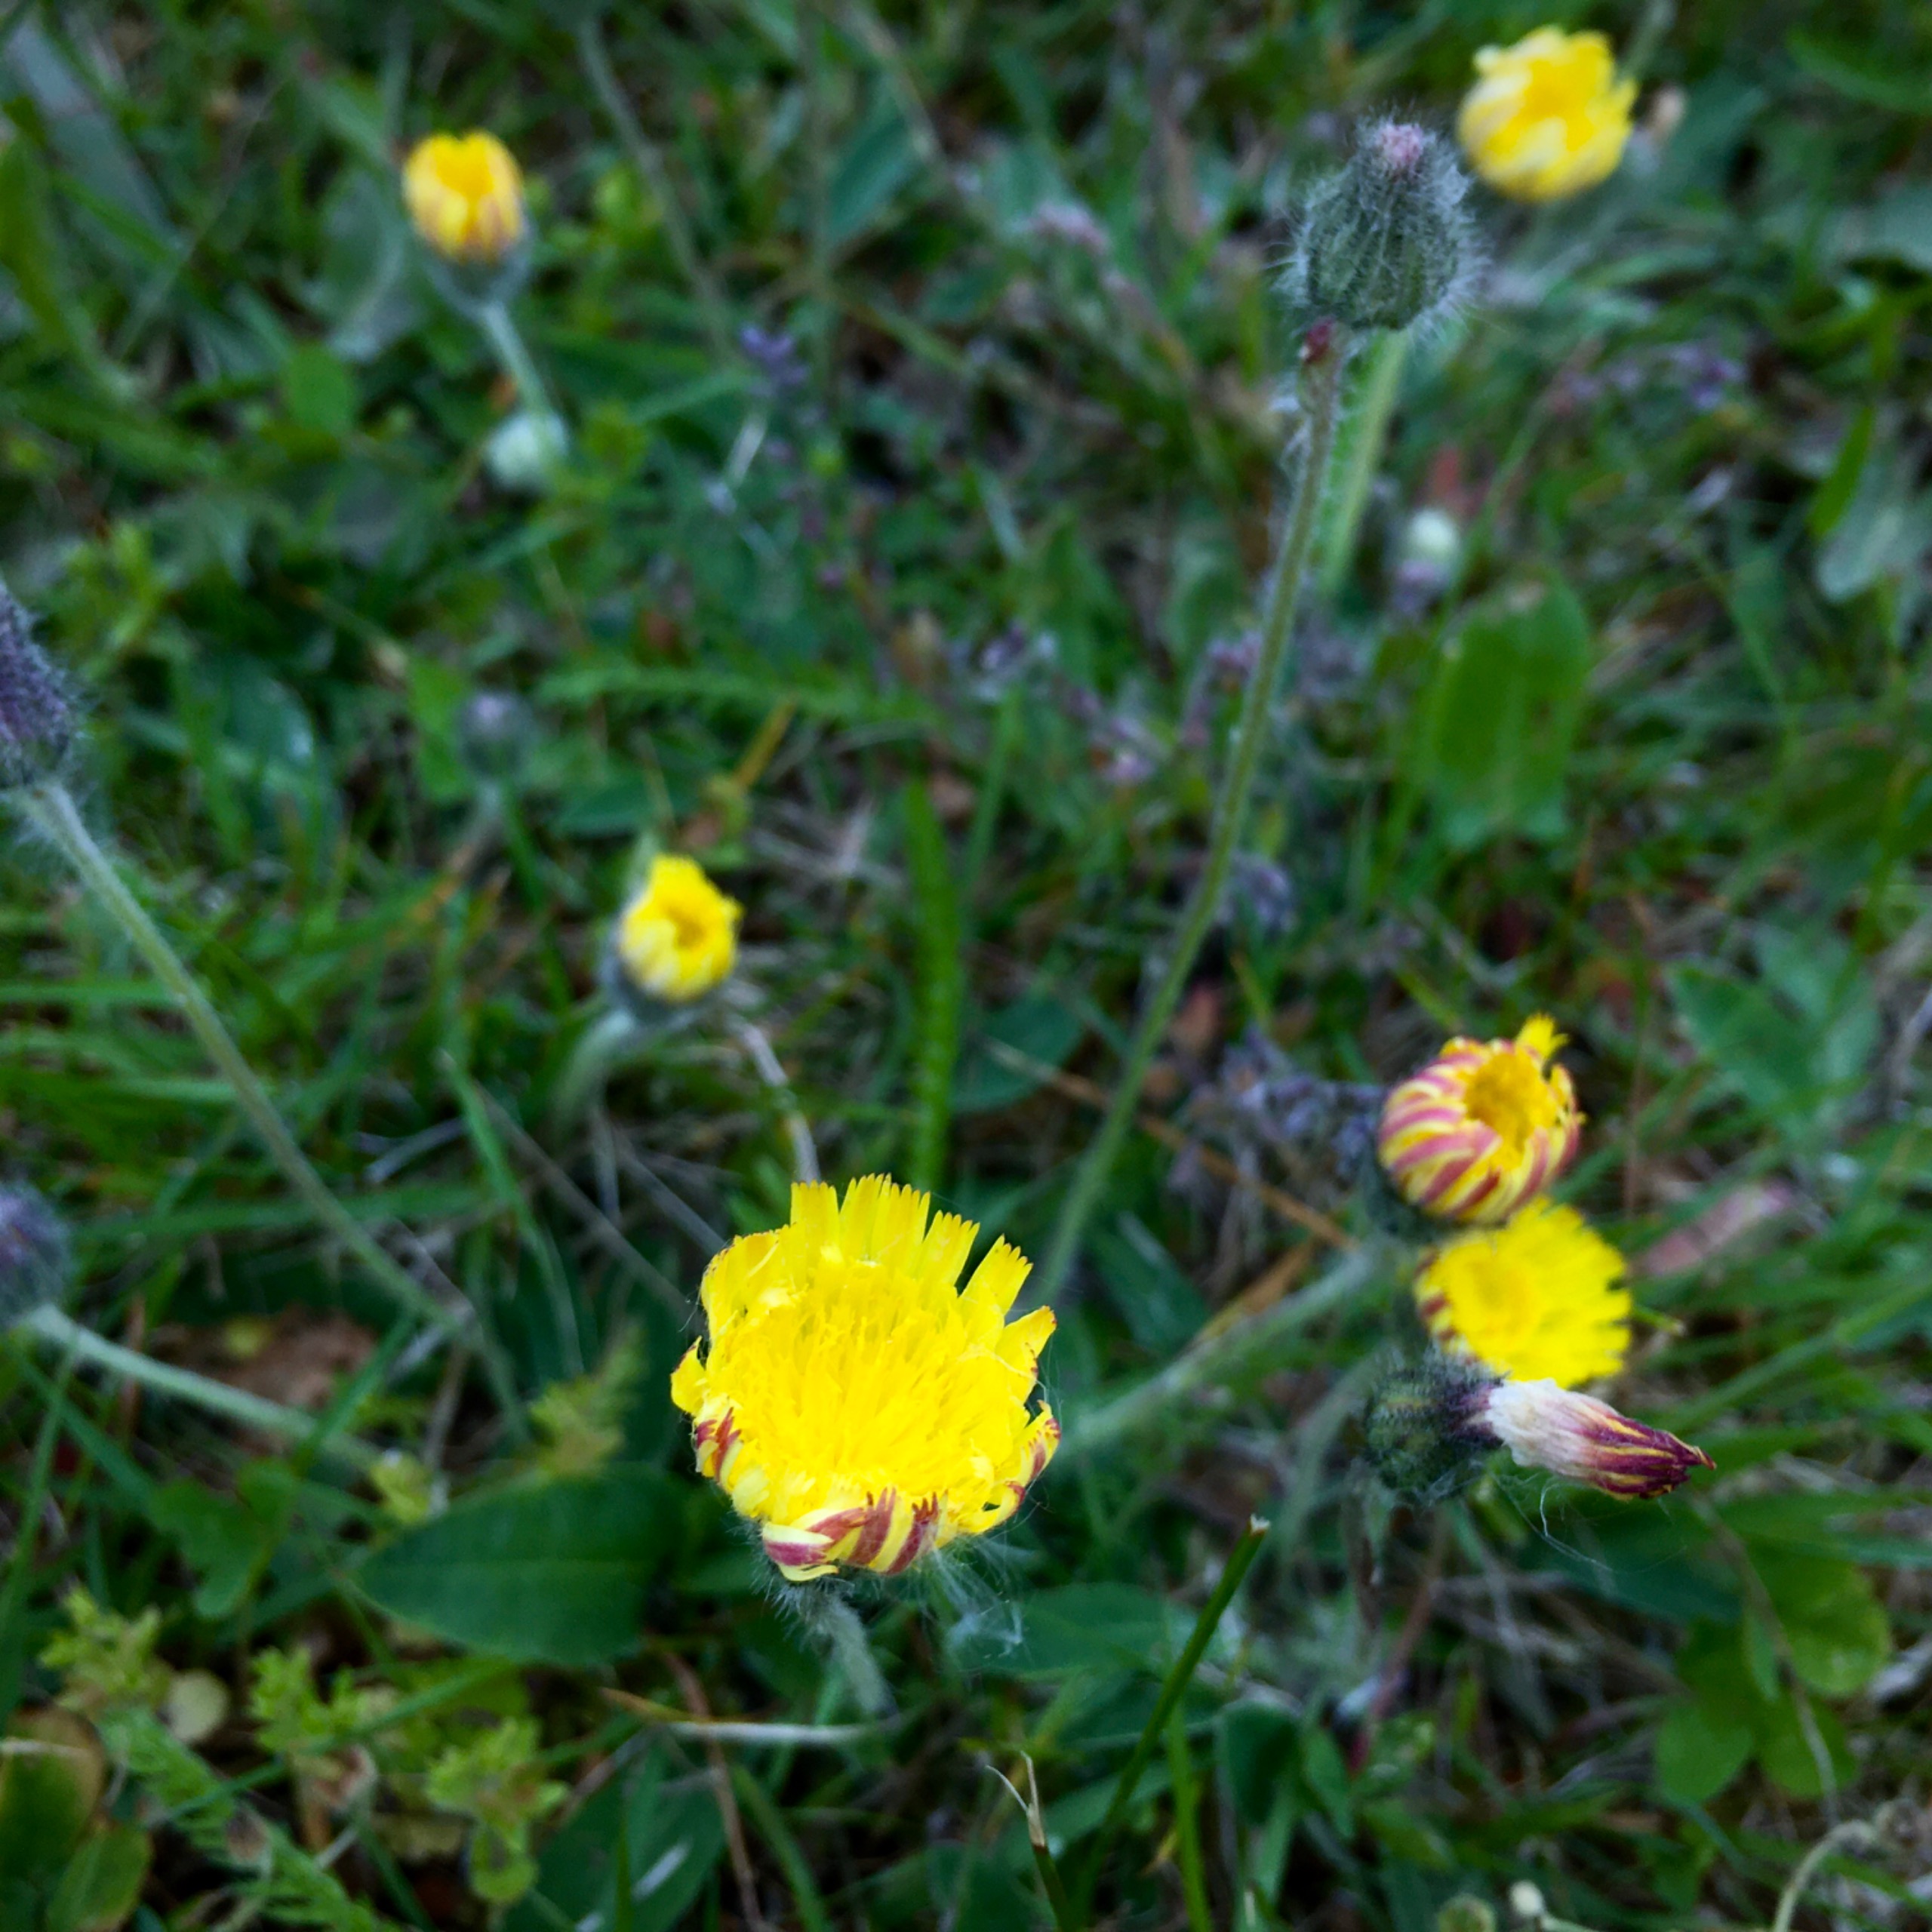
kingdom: Plantae
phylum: Tracheophyta
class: Magnoliopsida
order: Asterales
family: Asteraceae
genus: Pilosella
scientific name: Pilosella officinarum
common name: Håret høgeurt
